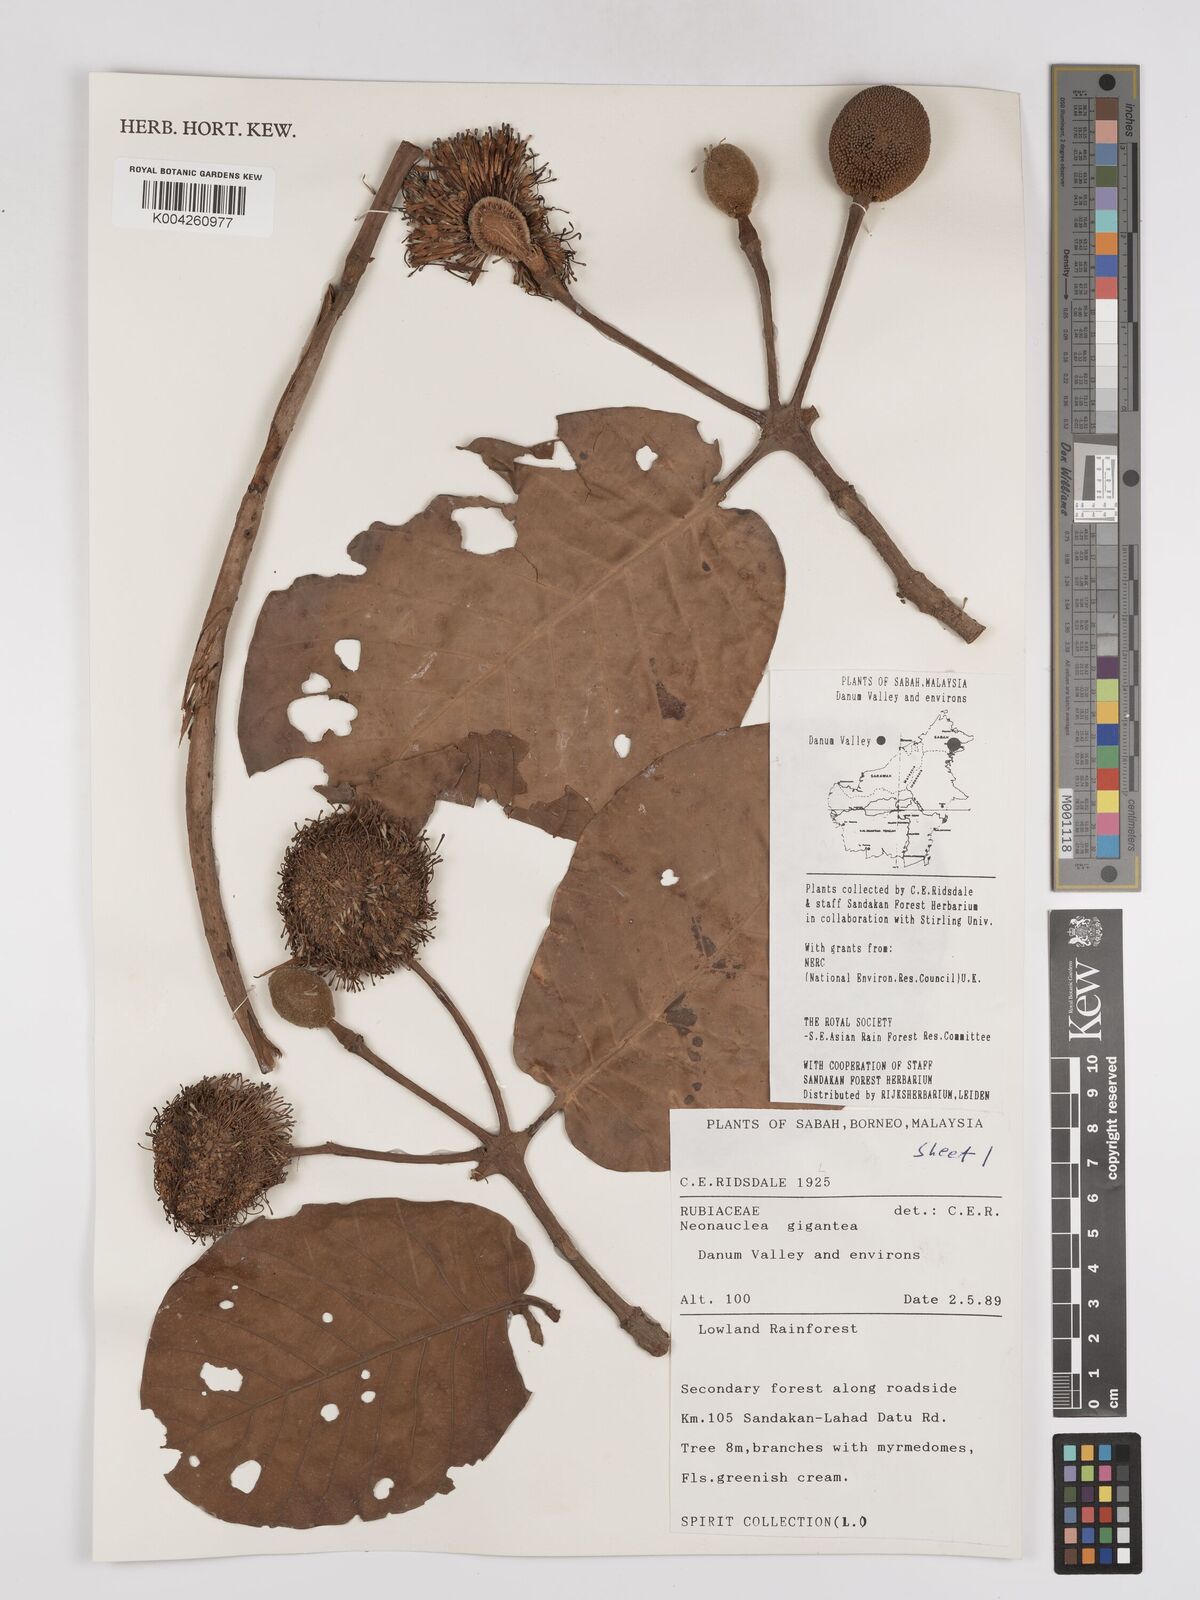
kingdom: Plantae
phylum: Tracheophyta
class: Magnoliopsida
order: Gentianales
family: Rubiaceae
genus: Neonauclea
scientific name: Neonauclea gigantea
